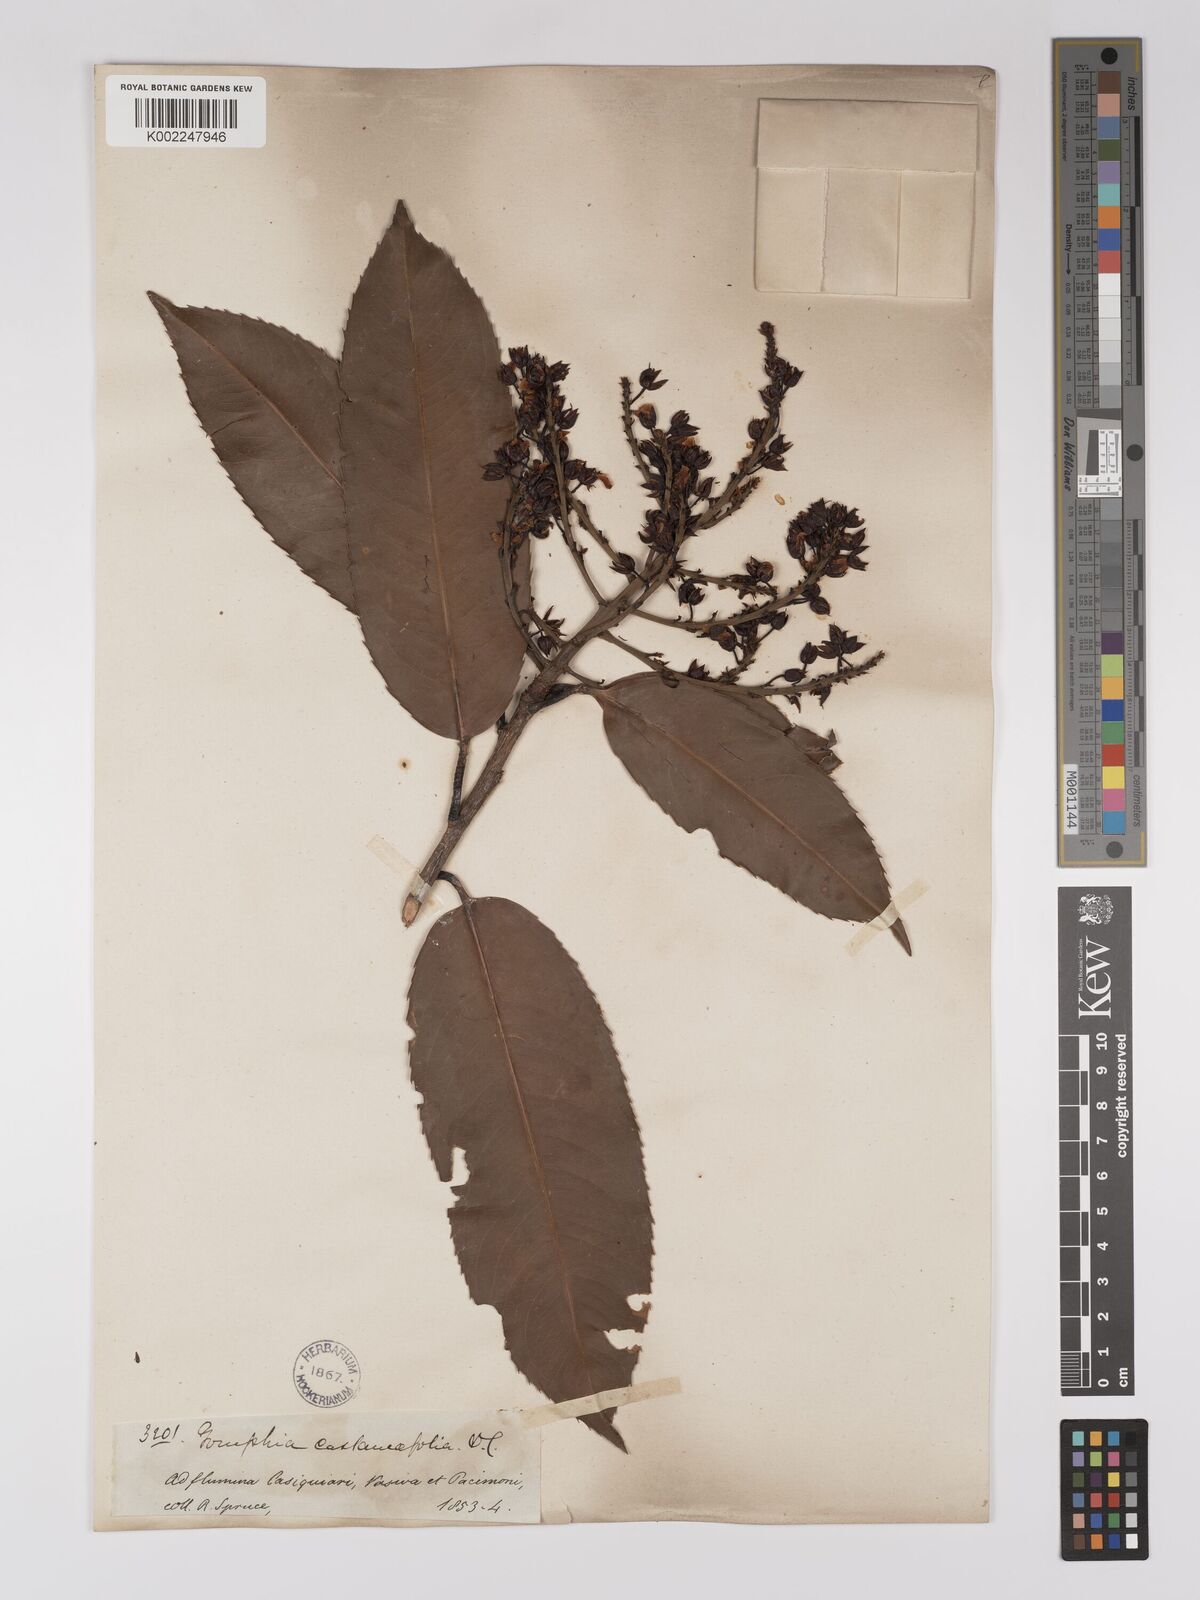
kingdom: Plantae
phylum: Tracheophyta
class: Magnoliopsida
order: Malpighiales
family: Ochnaceae
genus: Ouratea
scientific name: Ouratea castaneifolia
